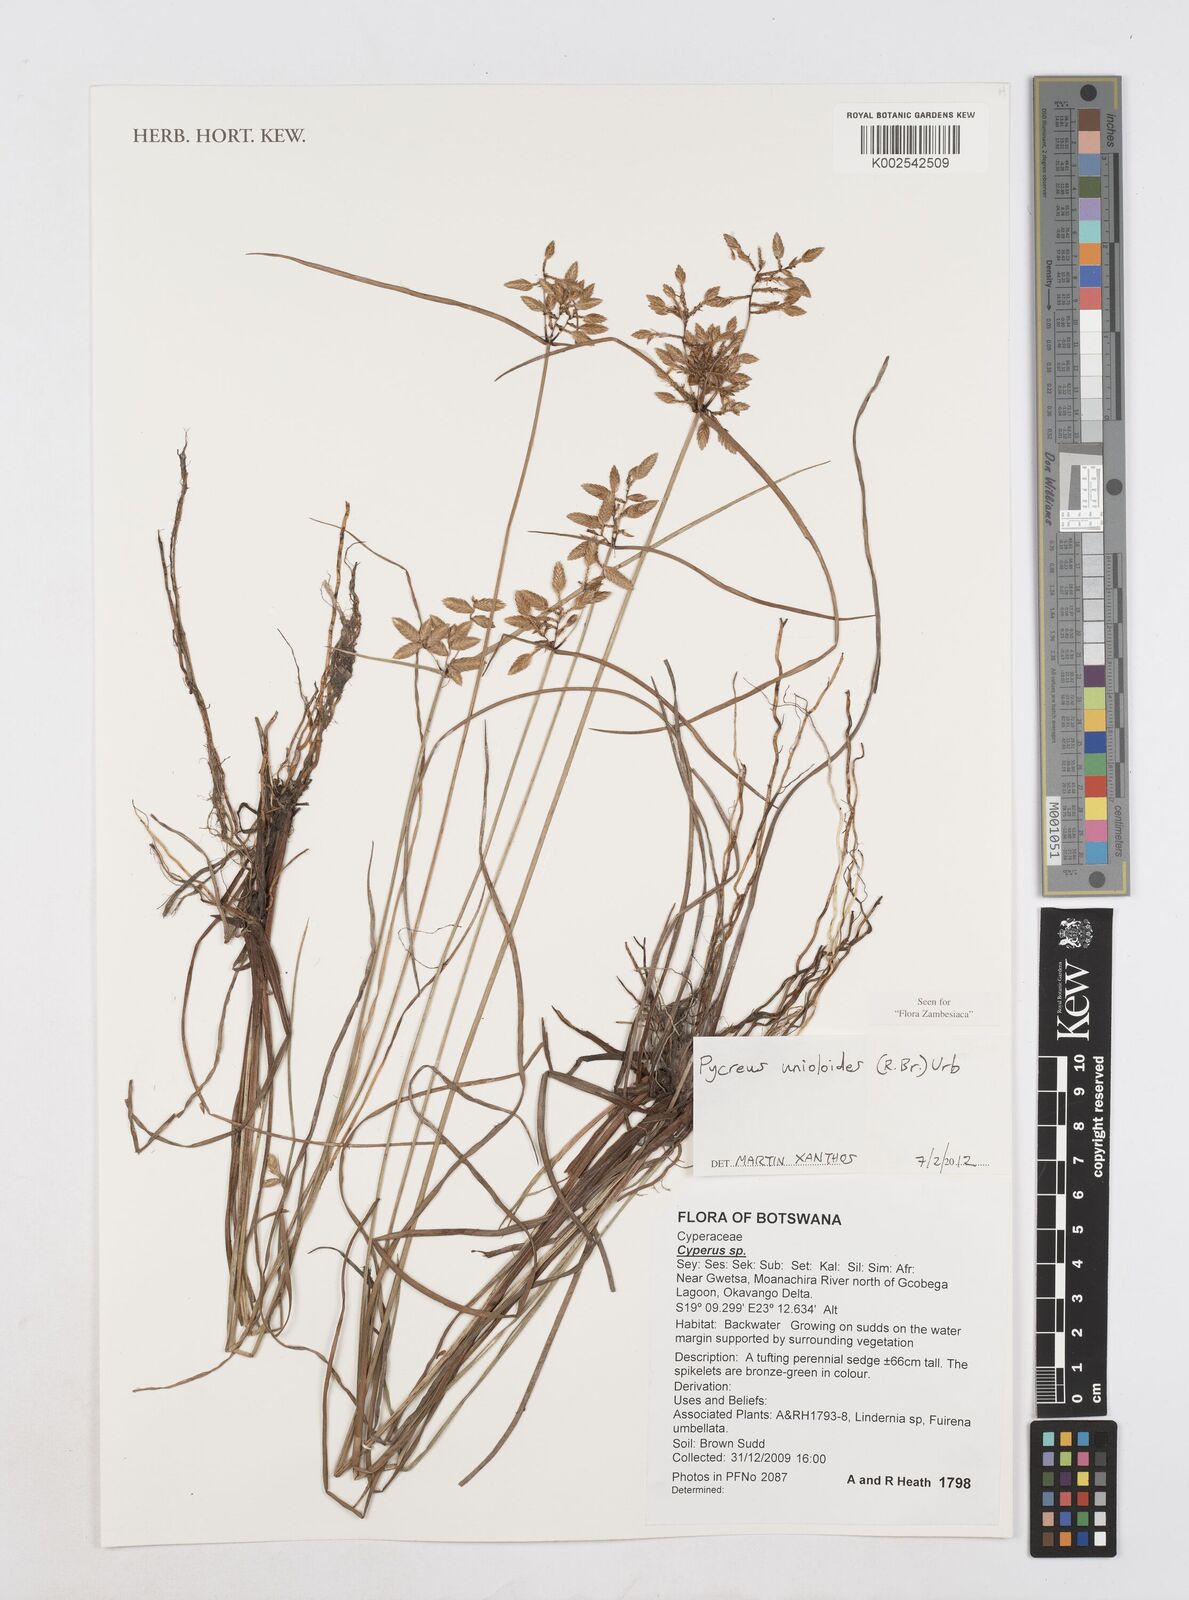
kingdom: Plantae
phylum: Tracheophyta
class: Liliopsida
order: Poales
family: Cyperaceae
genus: Cyperus
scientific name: Cyperus unioloides
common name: Uniola flatsedge
